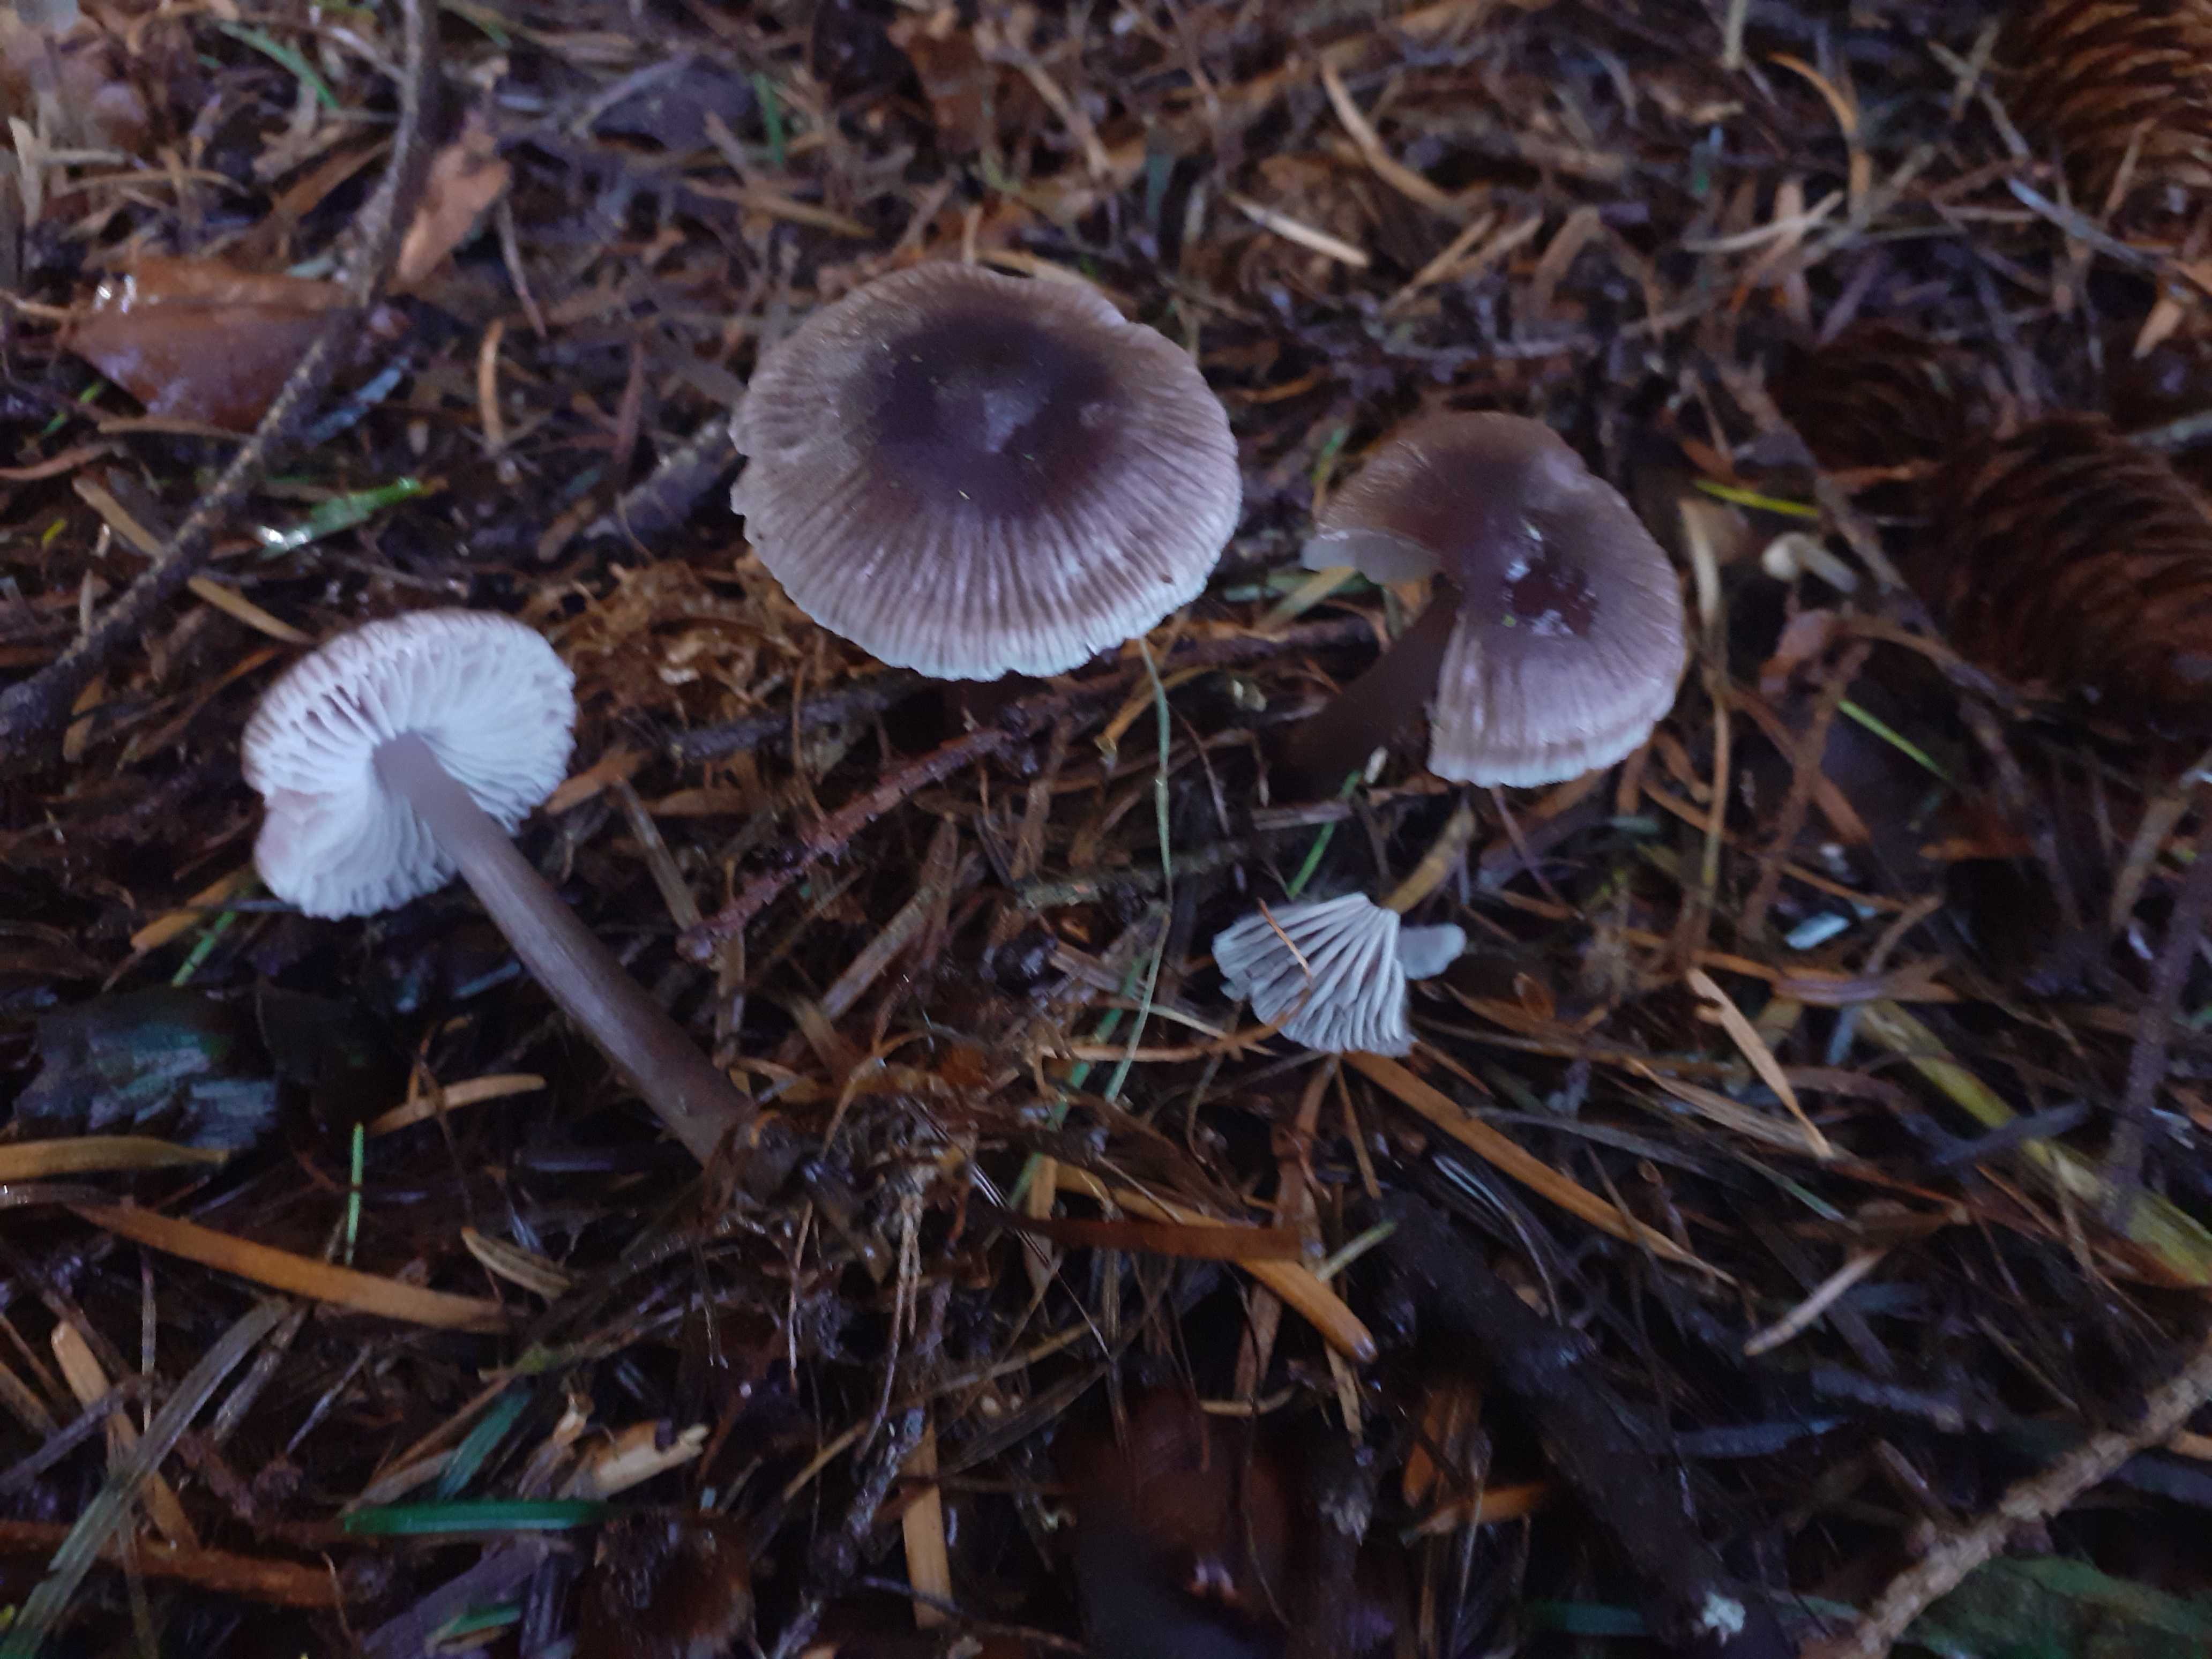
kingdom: Fungi
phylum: Basidiomycota
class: Agaricomycetes
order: Agaricales
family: Mycenaceae
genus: Prunulus
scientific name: Prunulus diosmus
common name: tobaks-huesvamp
